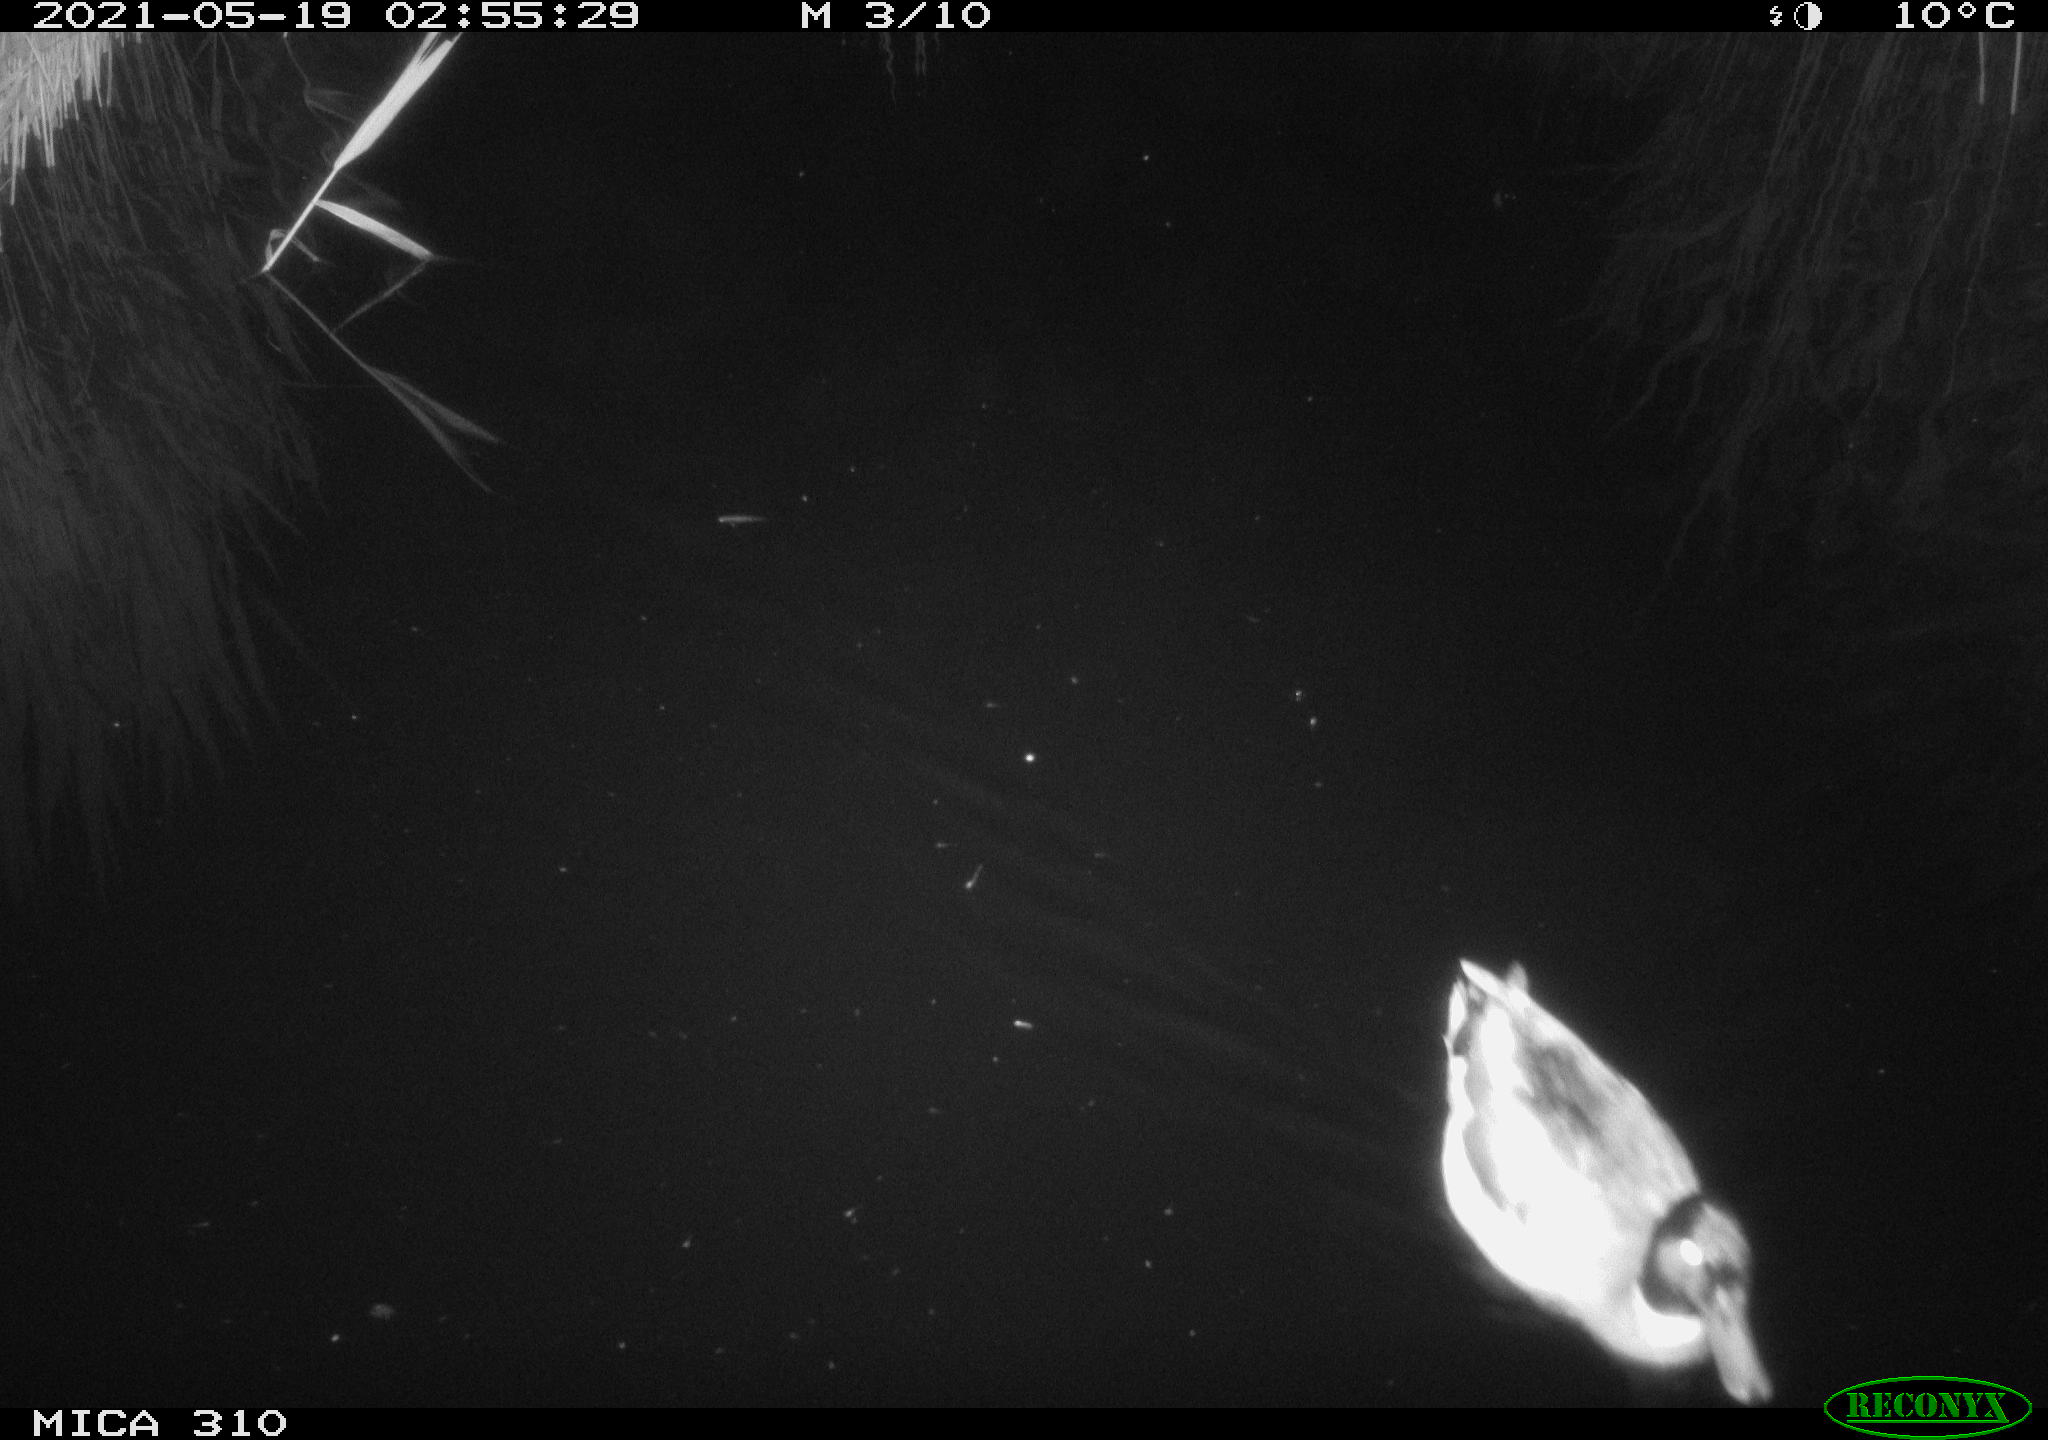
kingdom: Animalia
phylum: Chordata
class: Aves
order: Anseriformes
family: Anatidae
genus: Anas
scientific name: Anas platyrhynchos
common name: Mallard
